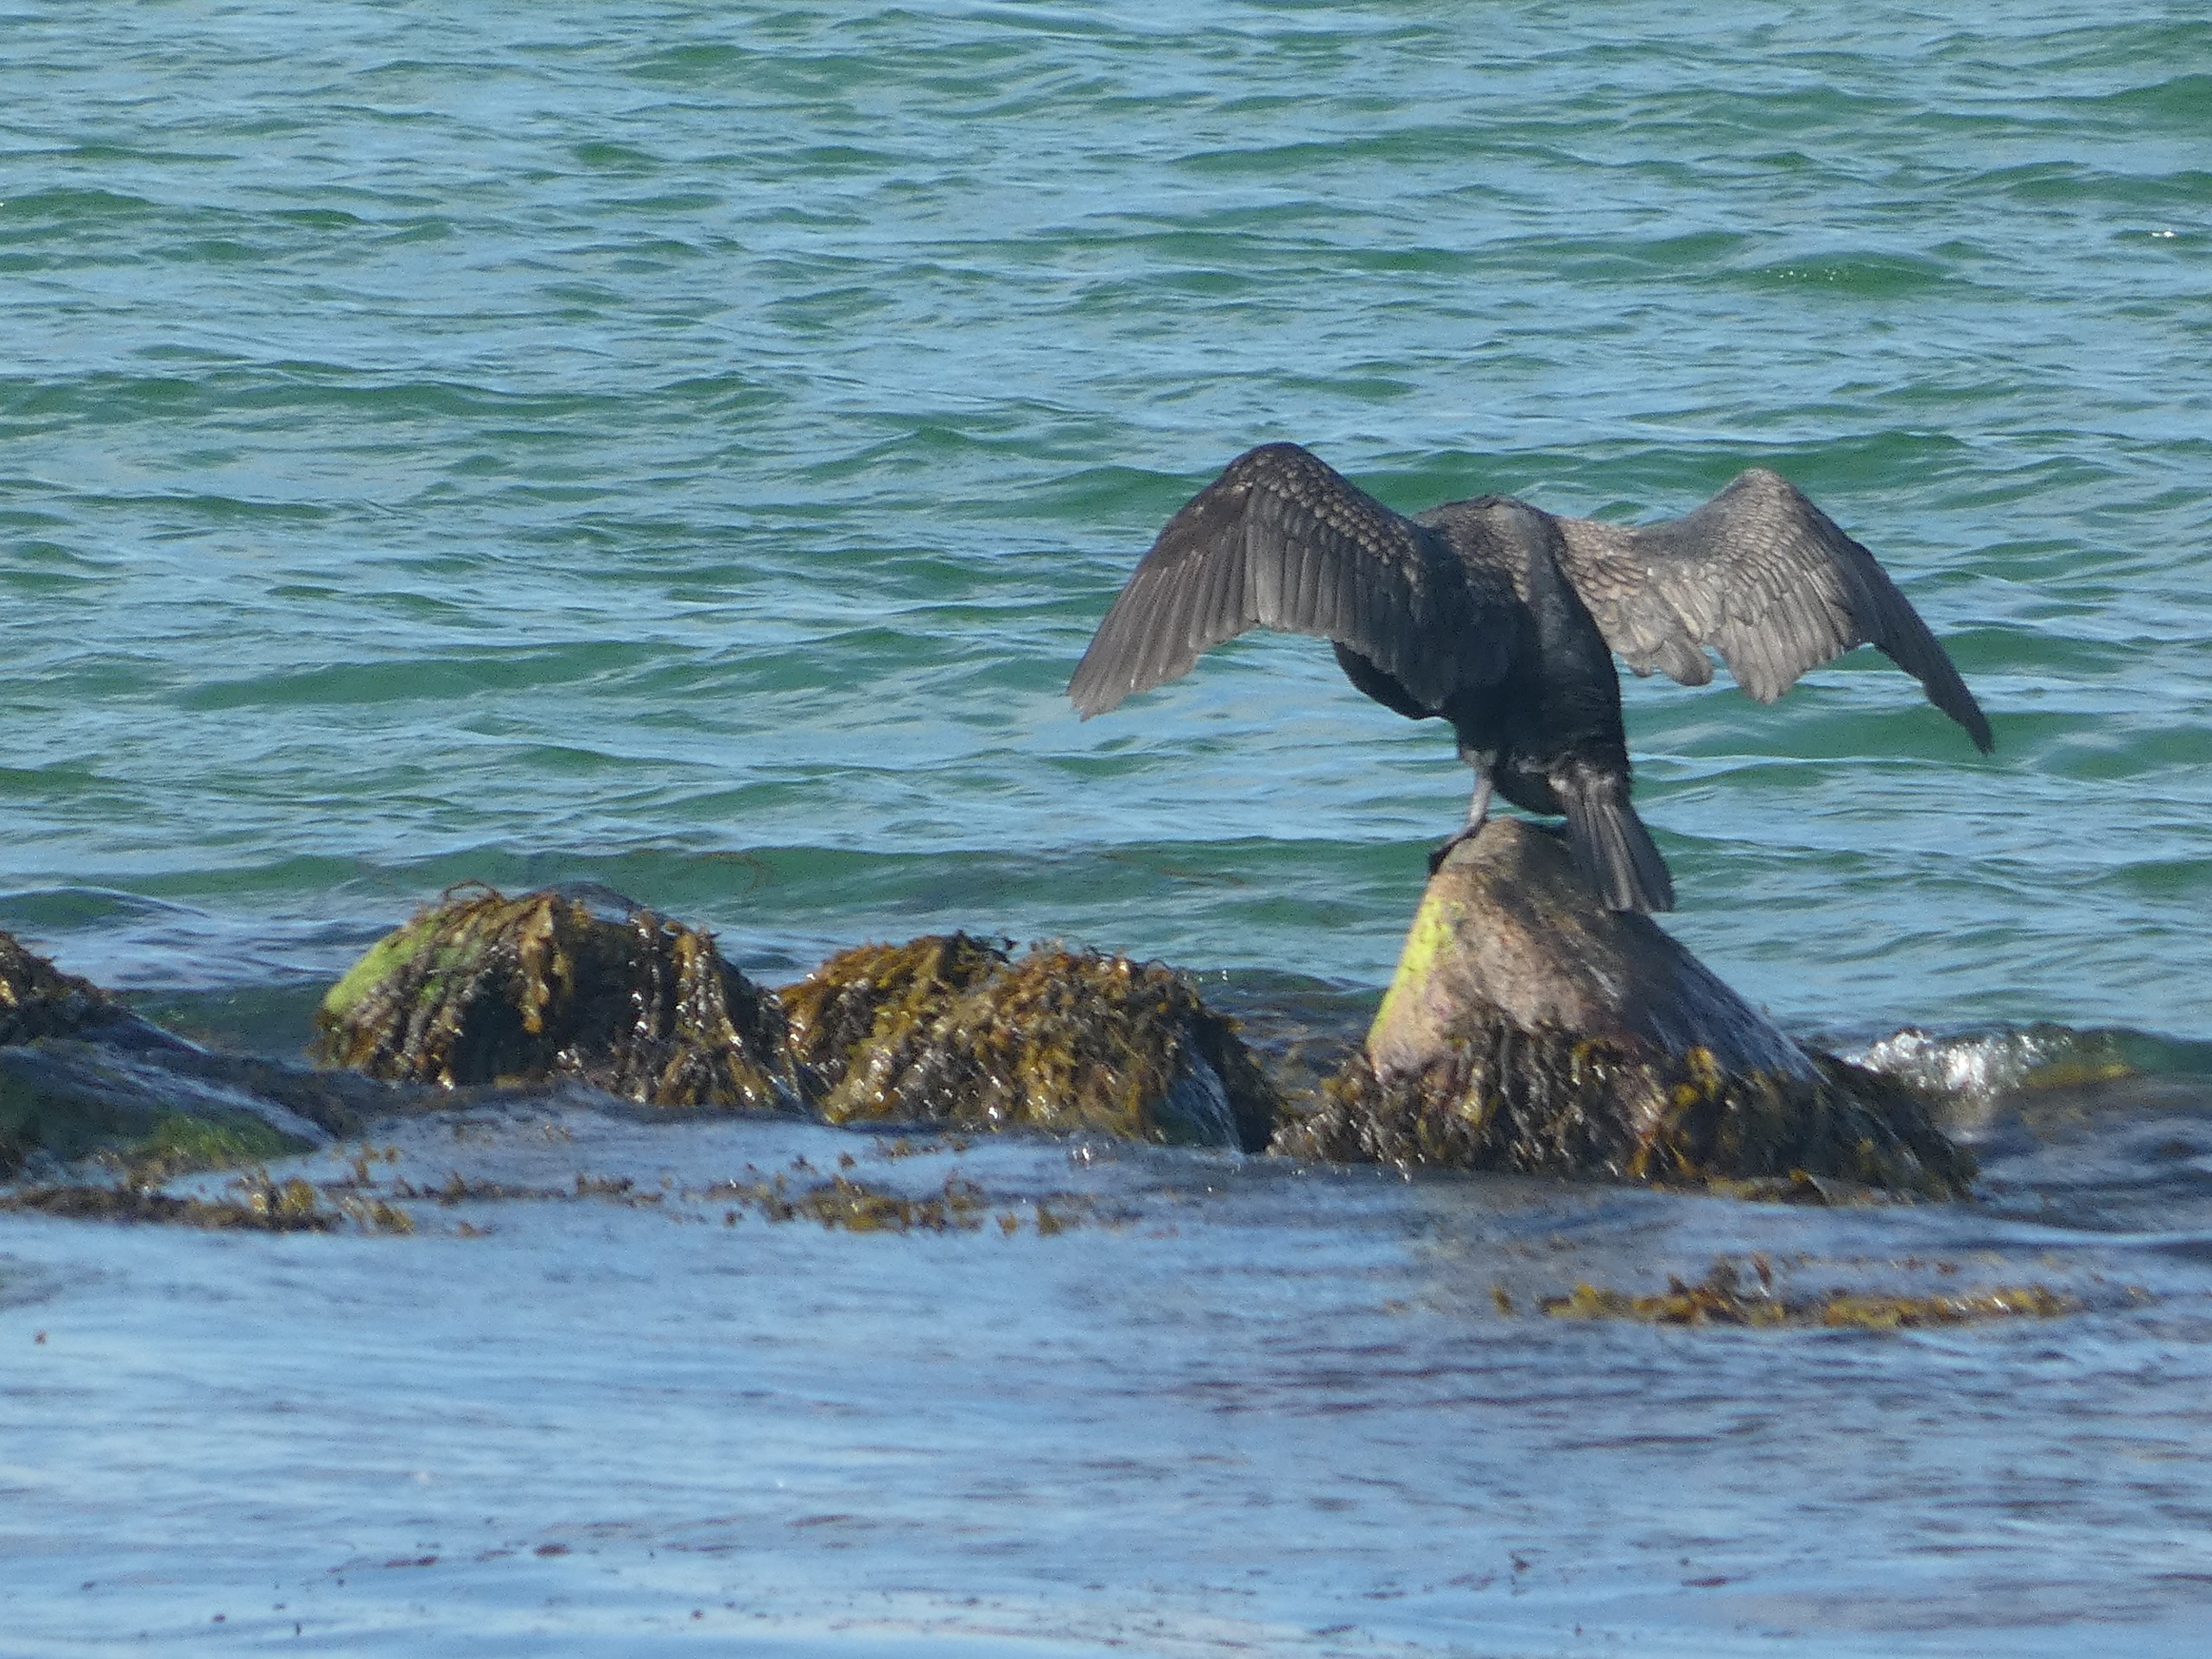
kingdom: Animalia
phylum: Chordata
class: Aves
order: Suliformes
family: Phalacrocoracidae
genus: Phalacrocorax
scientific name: Phalacrocorax carbo
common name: Skarv
